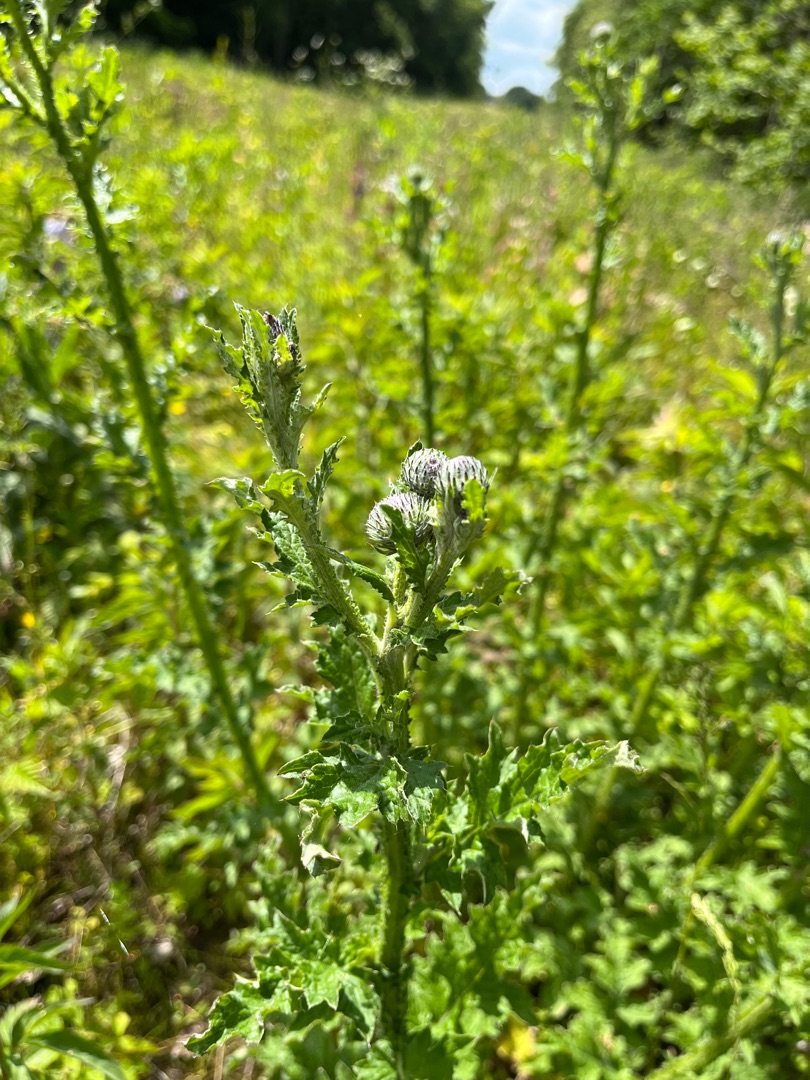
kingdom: Plantae
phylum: Tracheophyta
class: Magnoliopsida
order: Asterales
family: Asteraceae
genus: Carduus
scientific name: Carduus crispus
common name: Kruset tidsel
